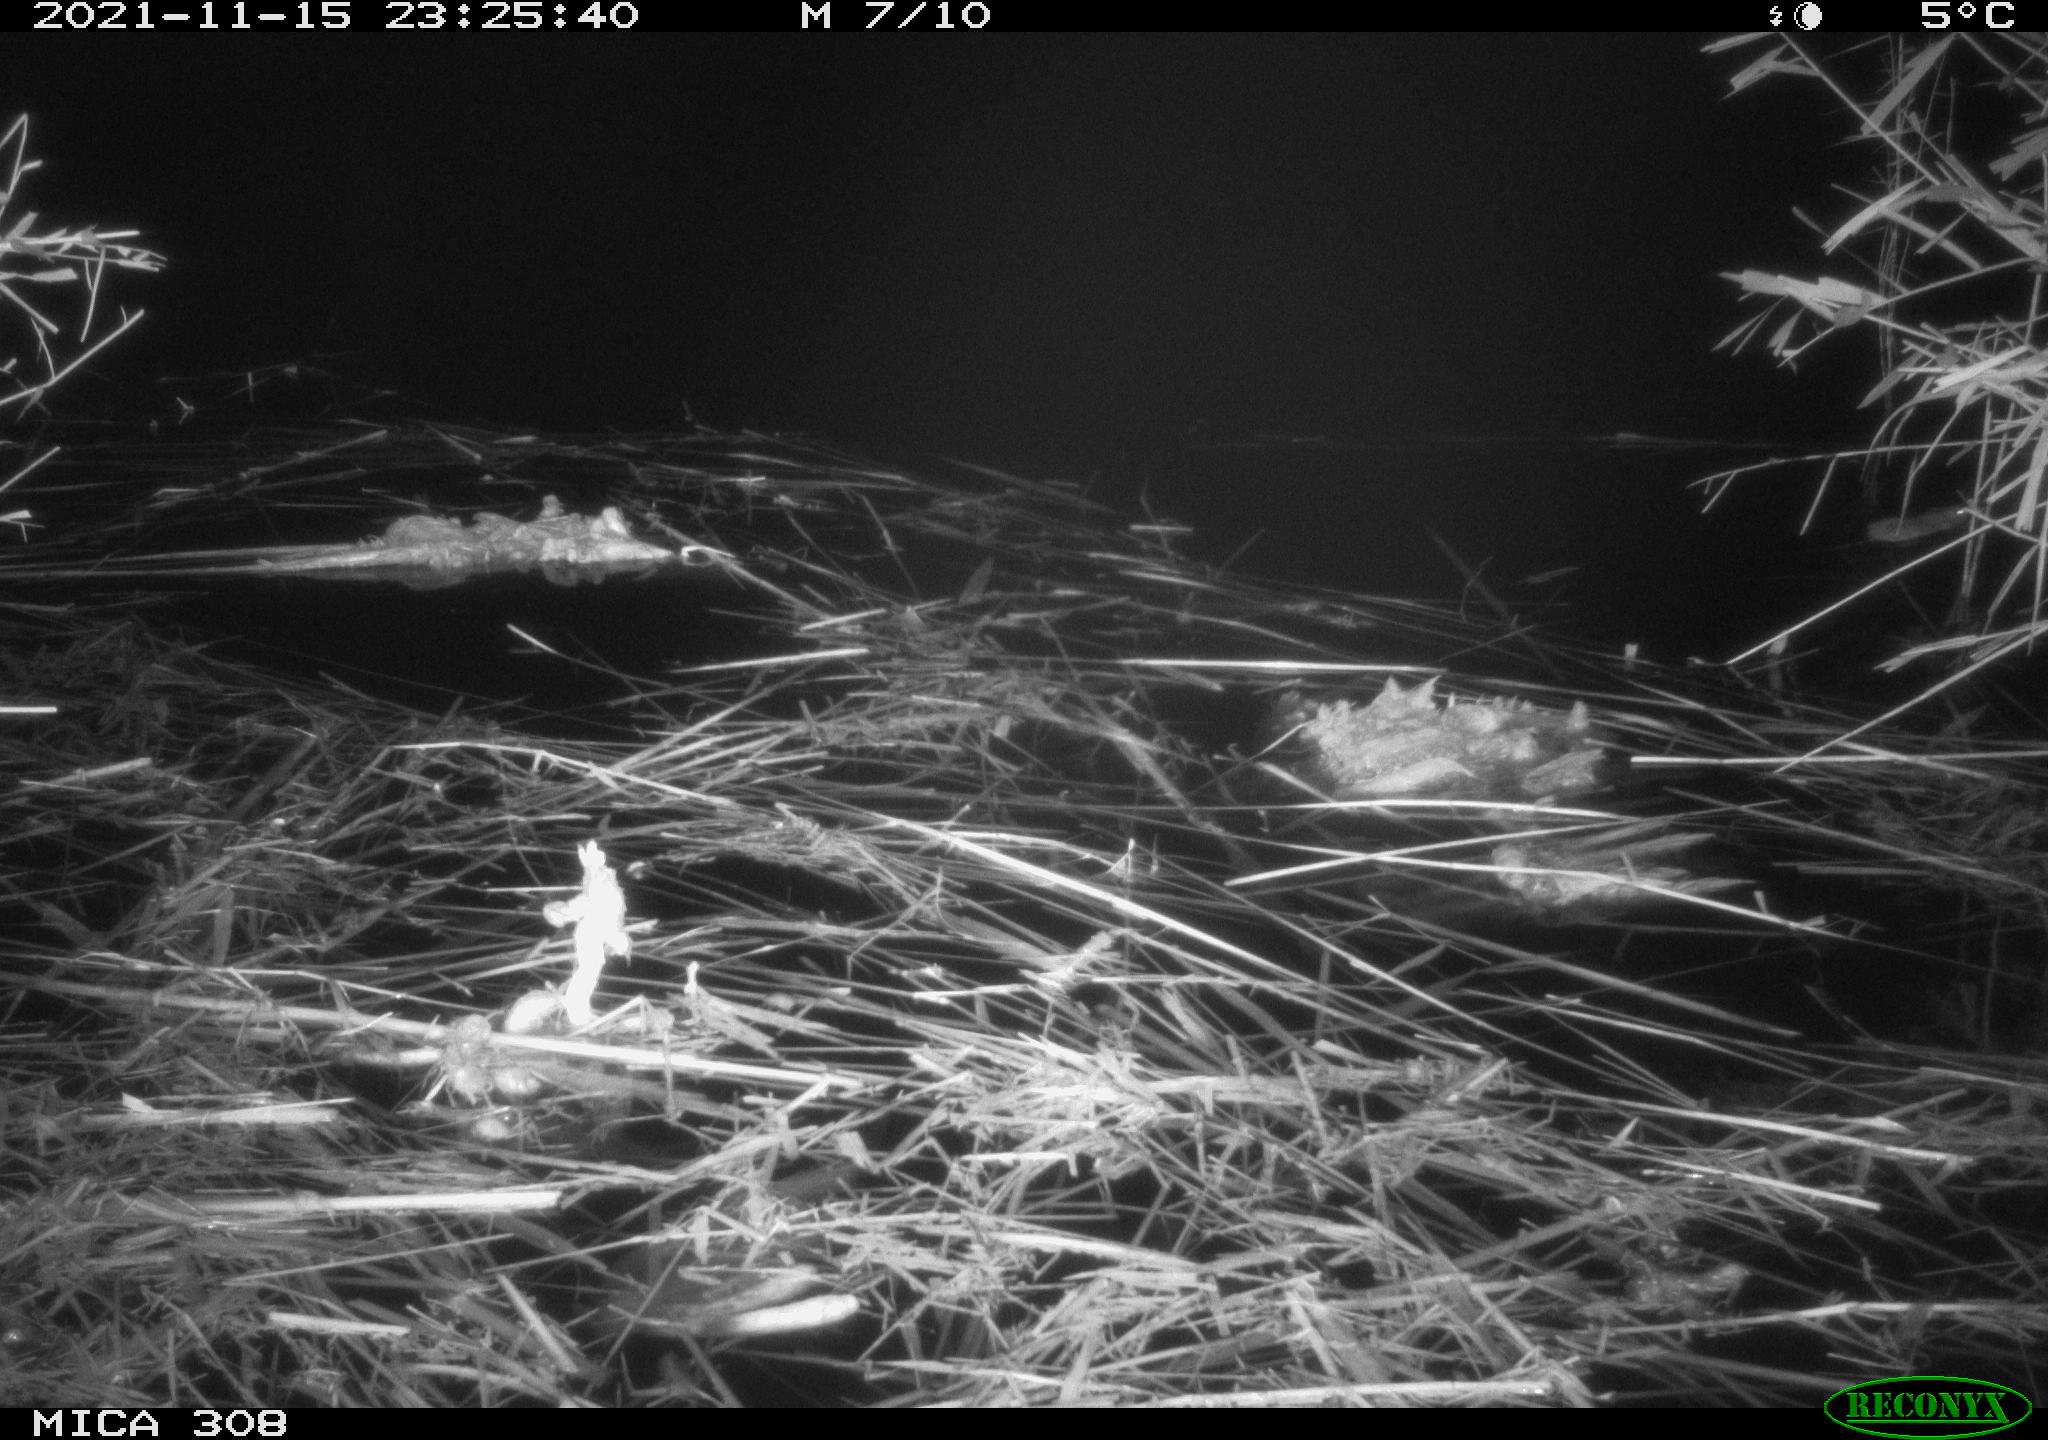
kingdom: Animalia
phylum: Chordata
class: Mammalia
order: Rodentia
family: Muridae
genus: Rattus
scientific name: Rattus norvegicus
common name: Brown rat
